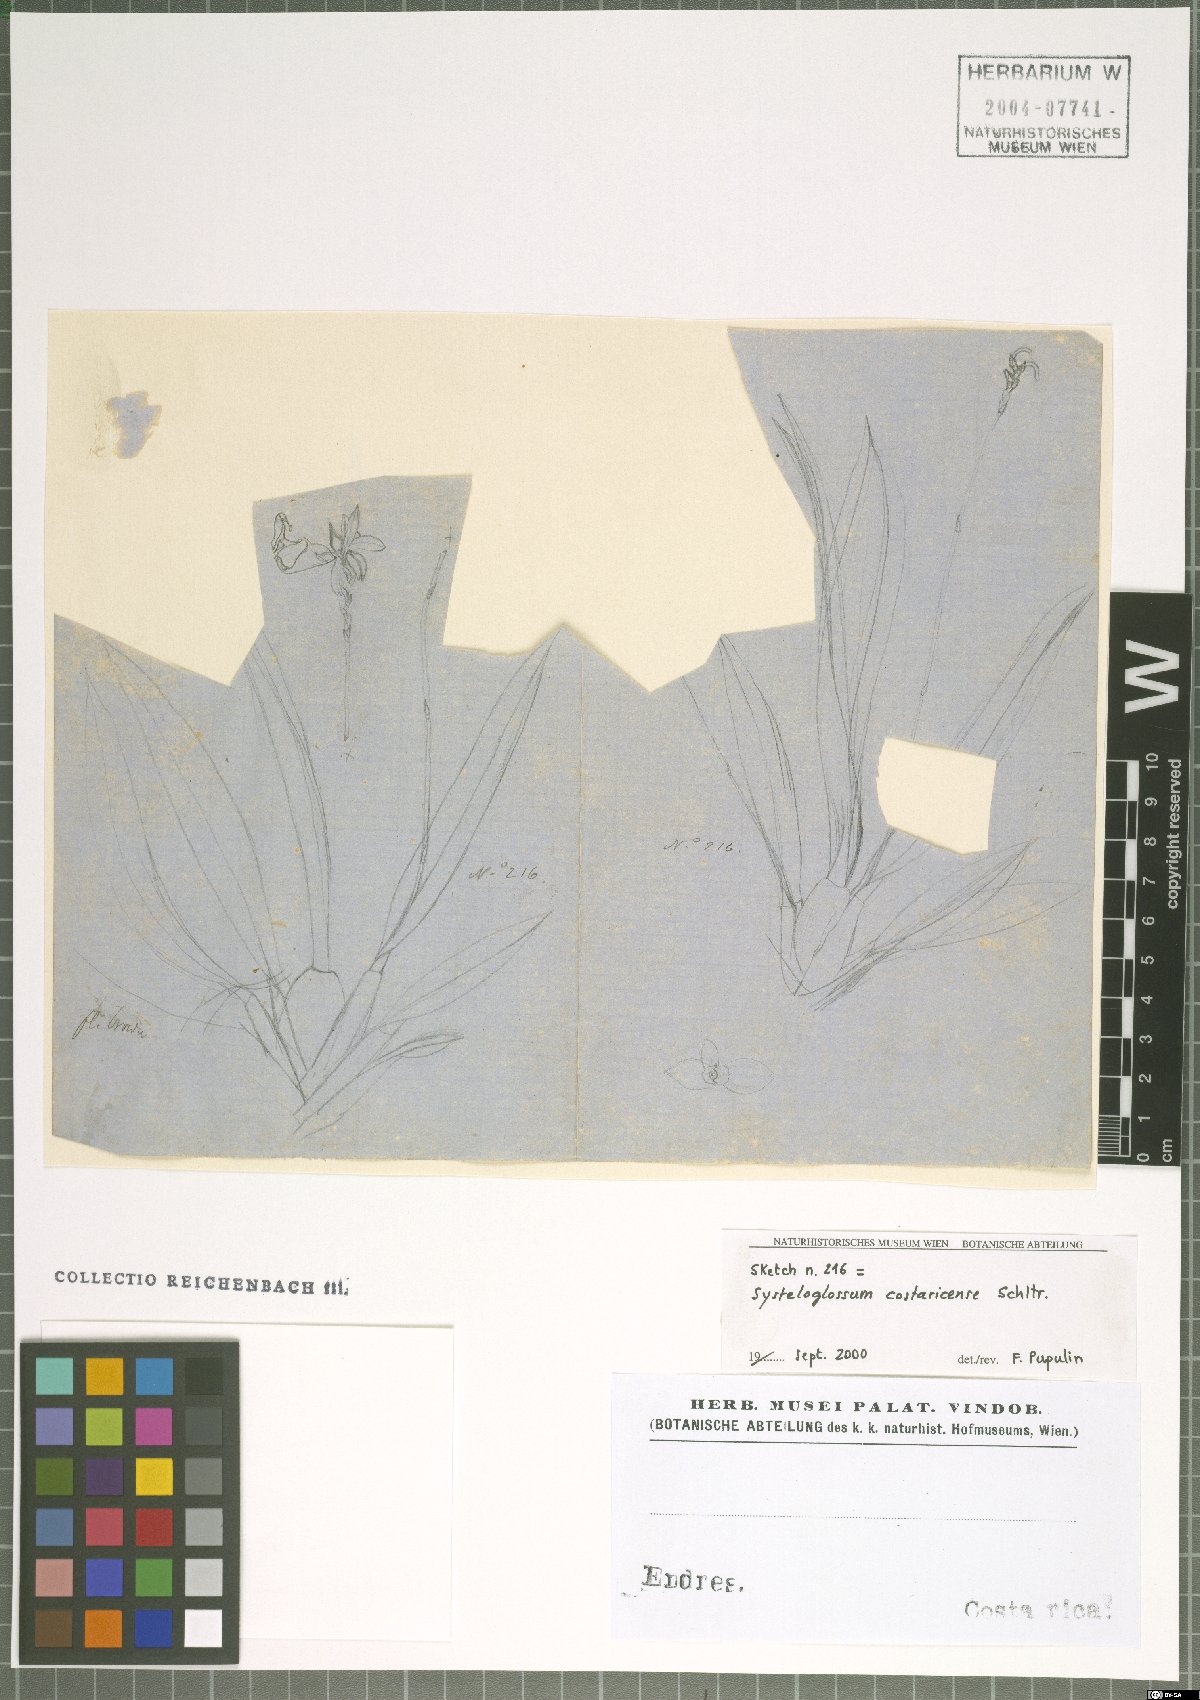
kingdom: Plantae
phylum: Tracheophyta
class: Liliopsida
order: Asparagales
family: Orchidaceae
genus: Systeloglossum
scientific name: Systeloglossum costaricense
